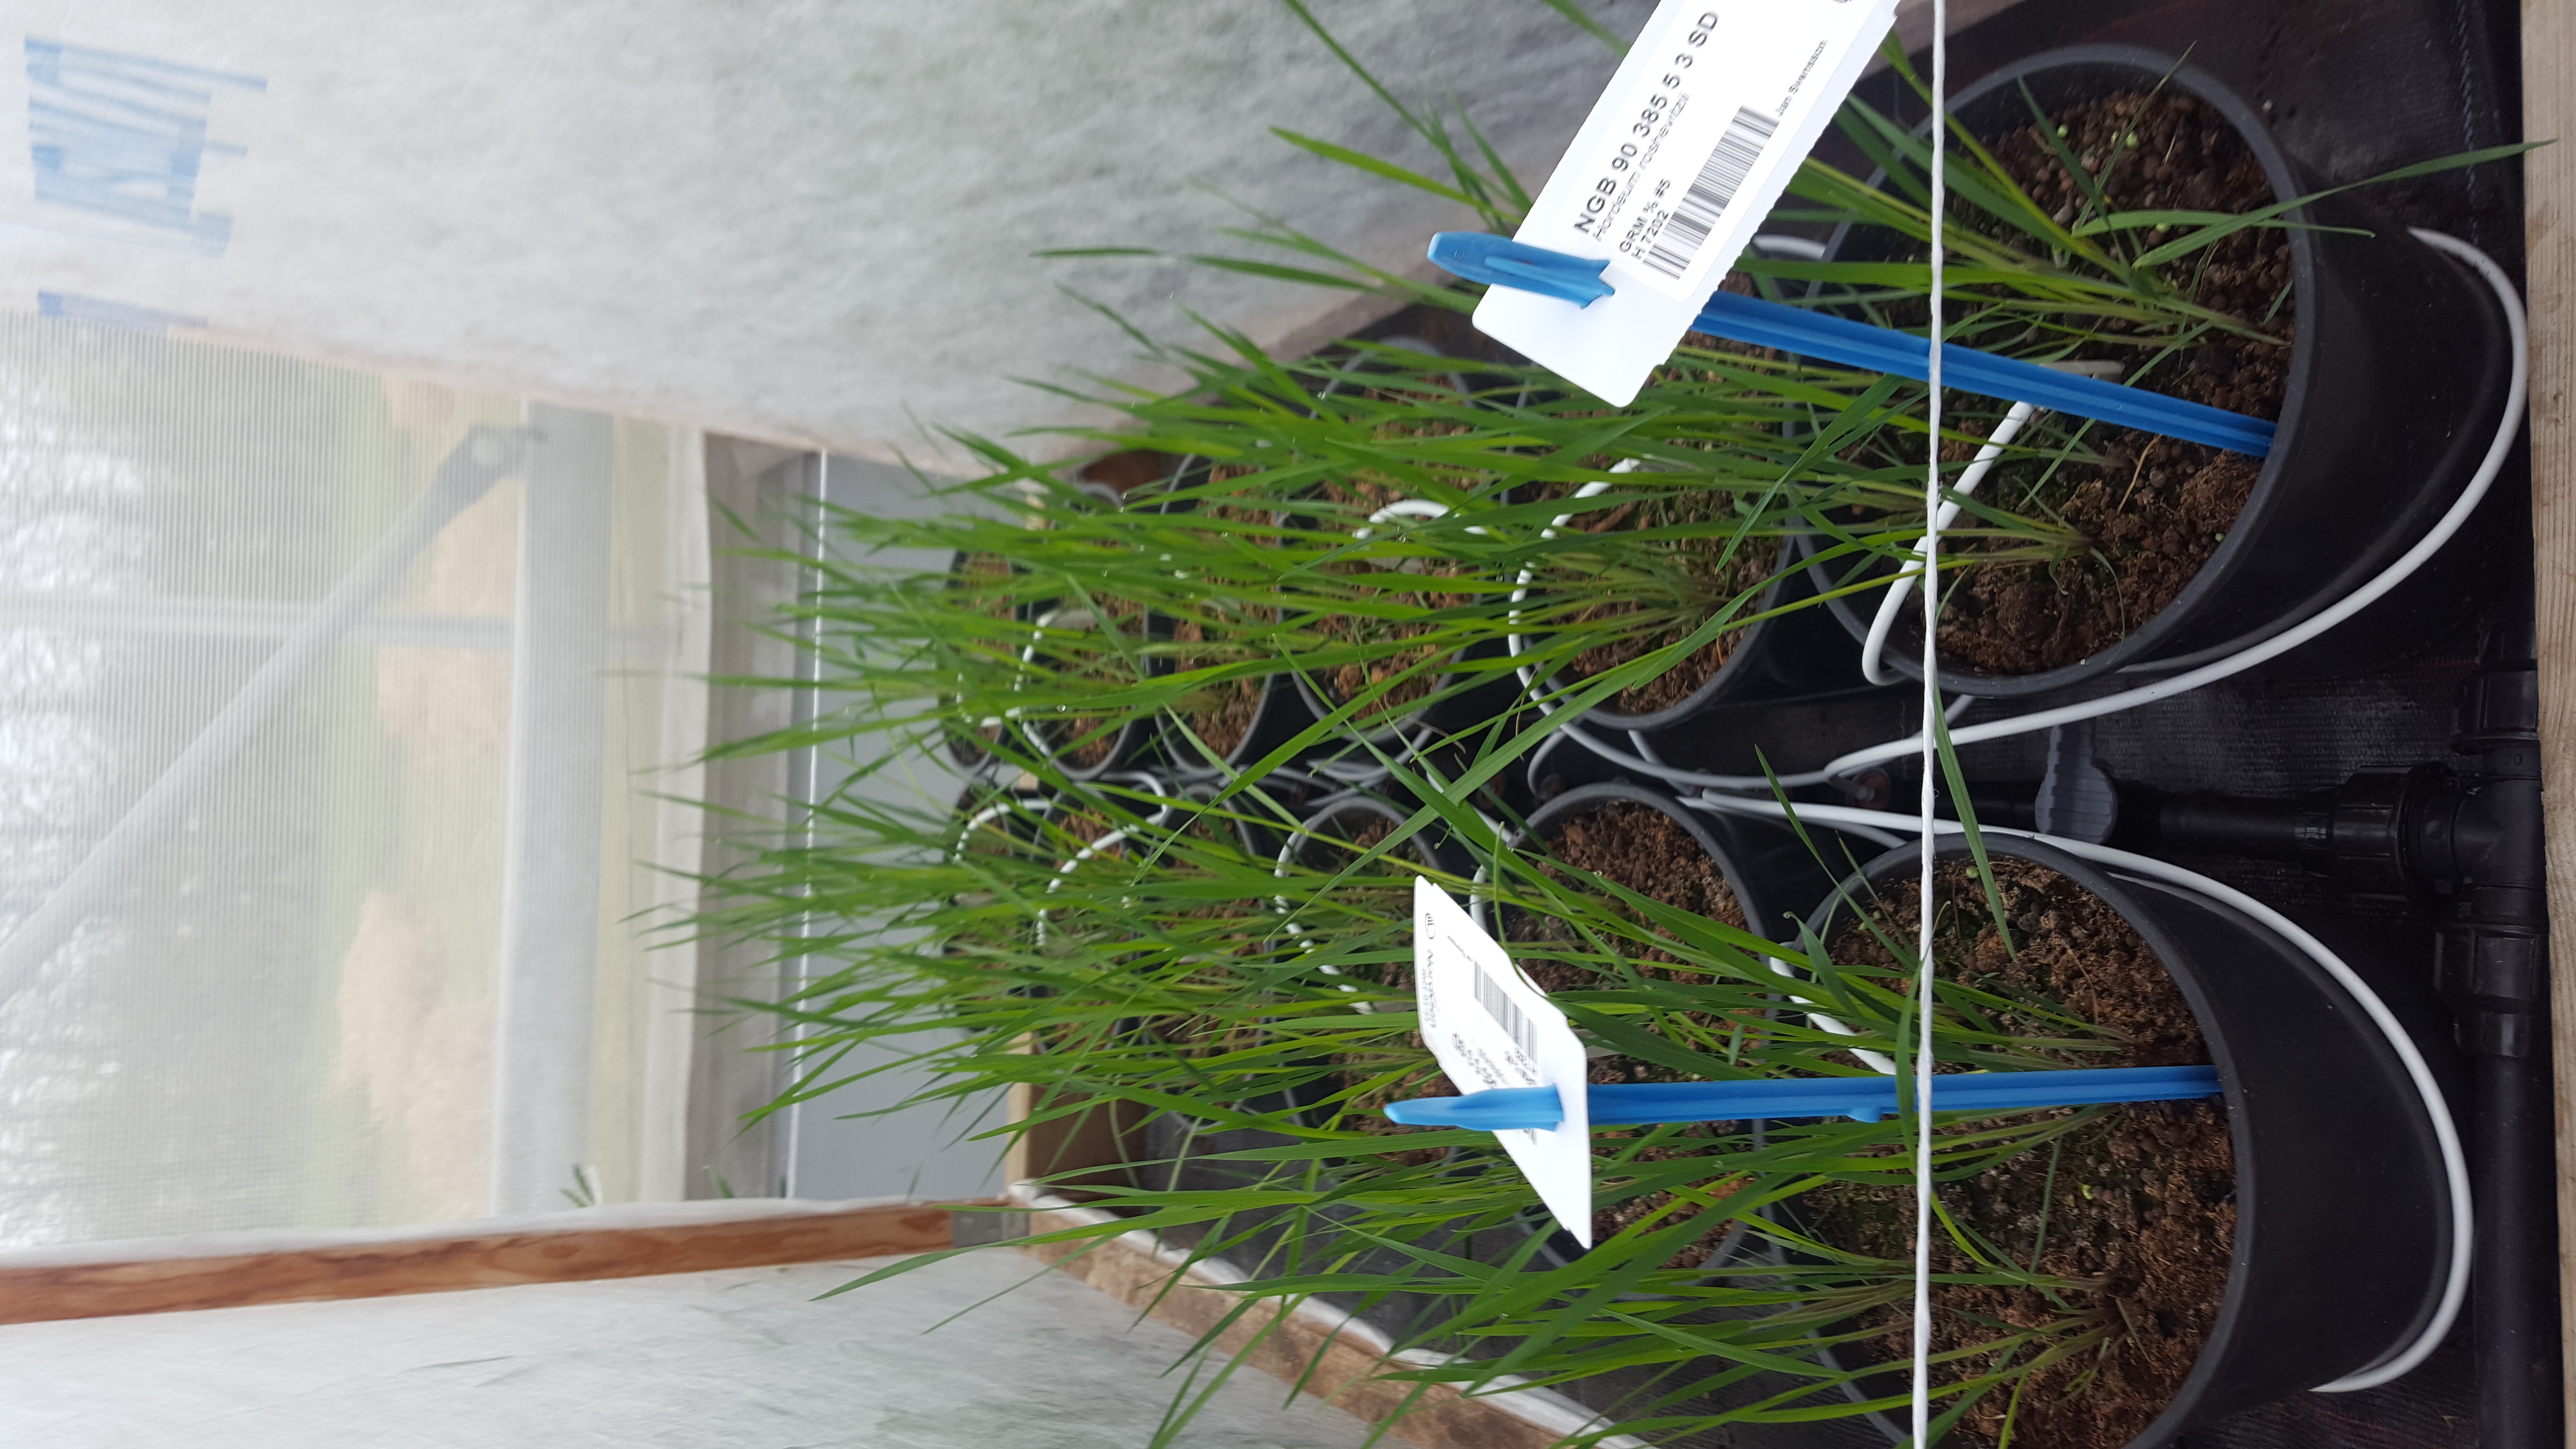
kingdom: Plantae
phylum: Tracheophyta
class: Liliopsida
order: Poales
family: Poaceae
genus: Hordeum
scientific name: Hordeum roshevitzii
